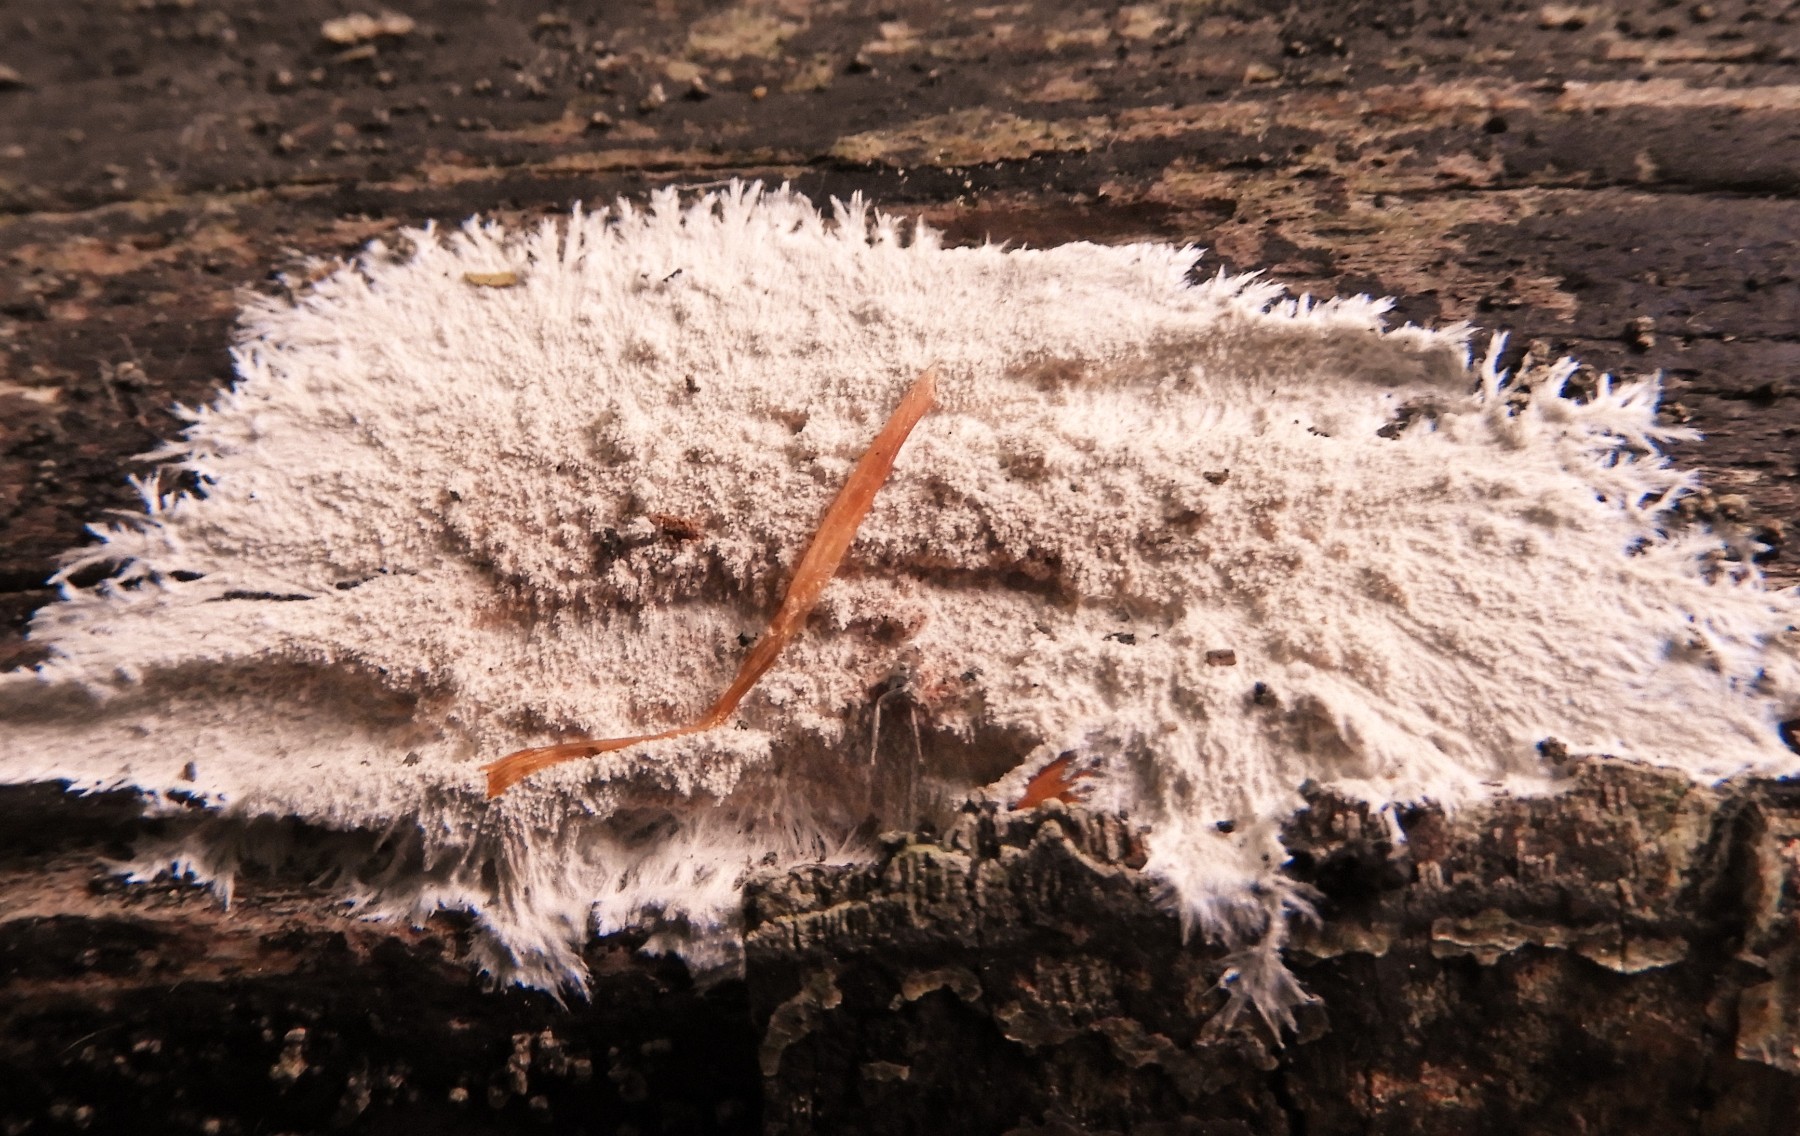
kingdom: Fungi
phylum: Basidiomycota
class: Agaricomycetes
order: Polyporales
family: Steccherinaceae
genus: Steccherinum
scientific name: Steccherinum fimbriatum
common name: trådet skønpig
